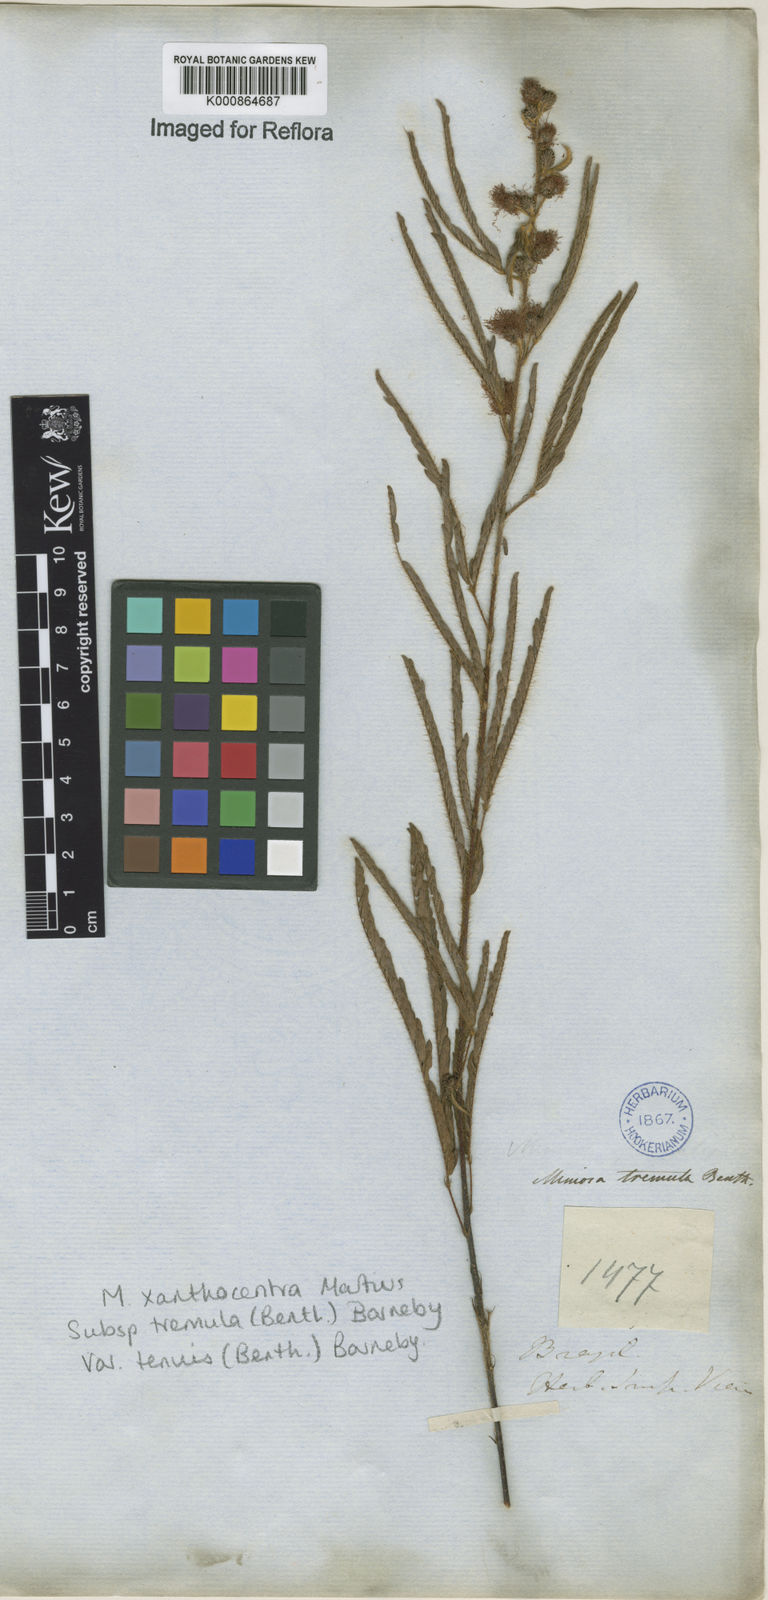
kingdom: Plantae
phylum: Tracheophyta
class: Magnoliopsida
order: Fabales
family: Fabaceae
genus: Mimosa
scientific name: Mimosa xanthocentra
